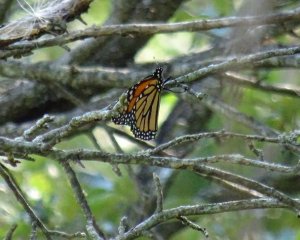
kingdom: Animalia
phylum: Arthropoda
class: Insecta
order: Lepidoptera
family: Nymphalidae
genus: Danaus
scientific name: Danaus plexippus
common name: Monarch
